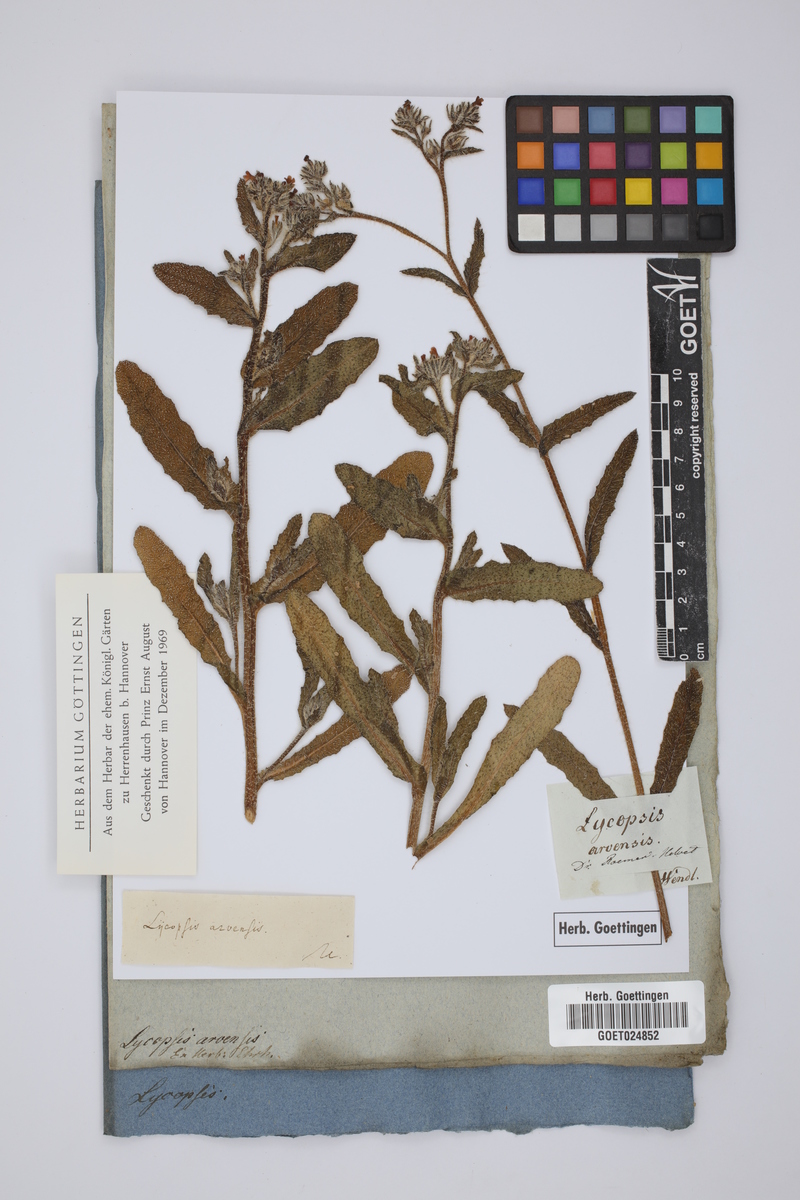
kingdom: Plantae
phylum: Tracheophyta
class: Magnoliopsida
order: Boraginales
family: Boraginaceae
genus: Lycopsis
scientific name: Lycopsis arvensis
